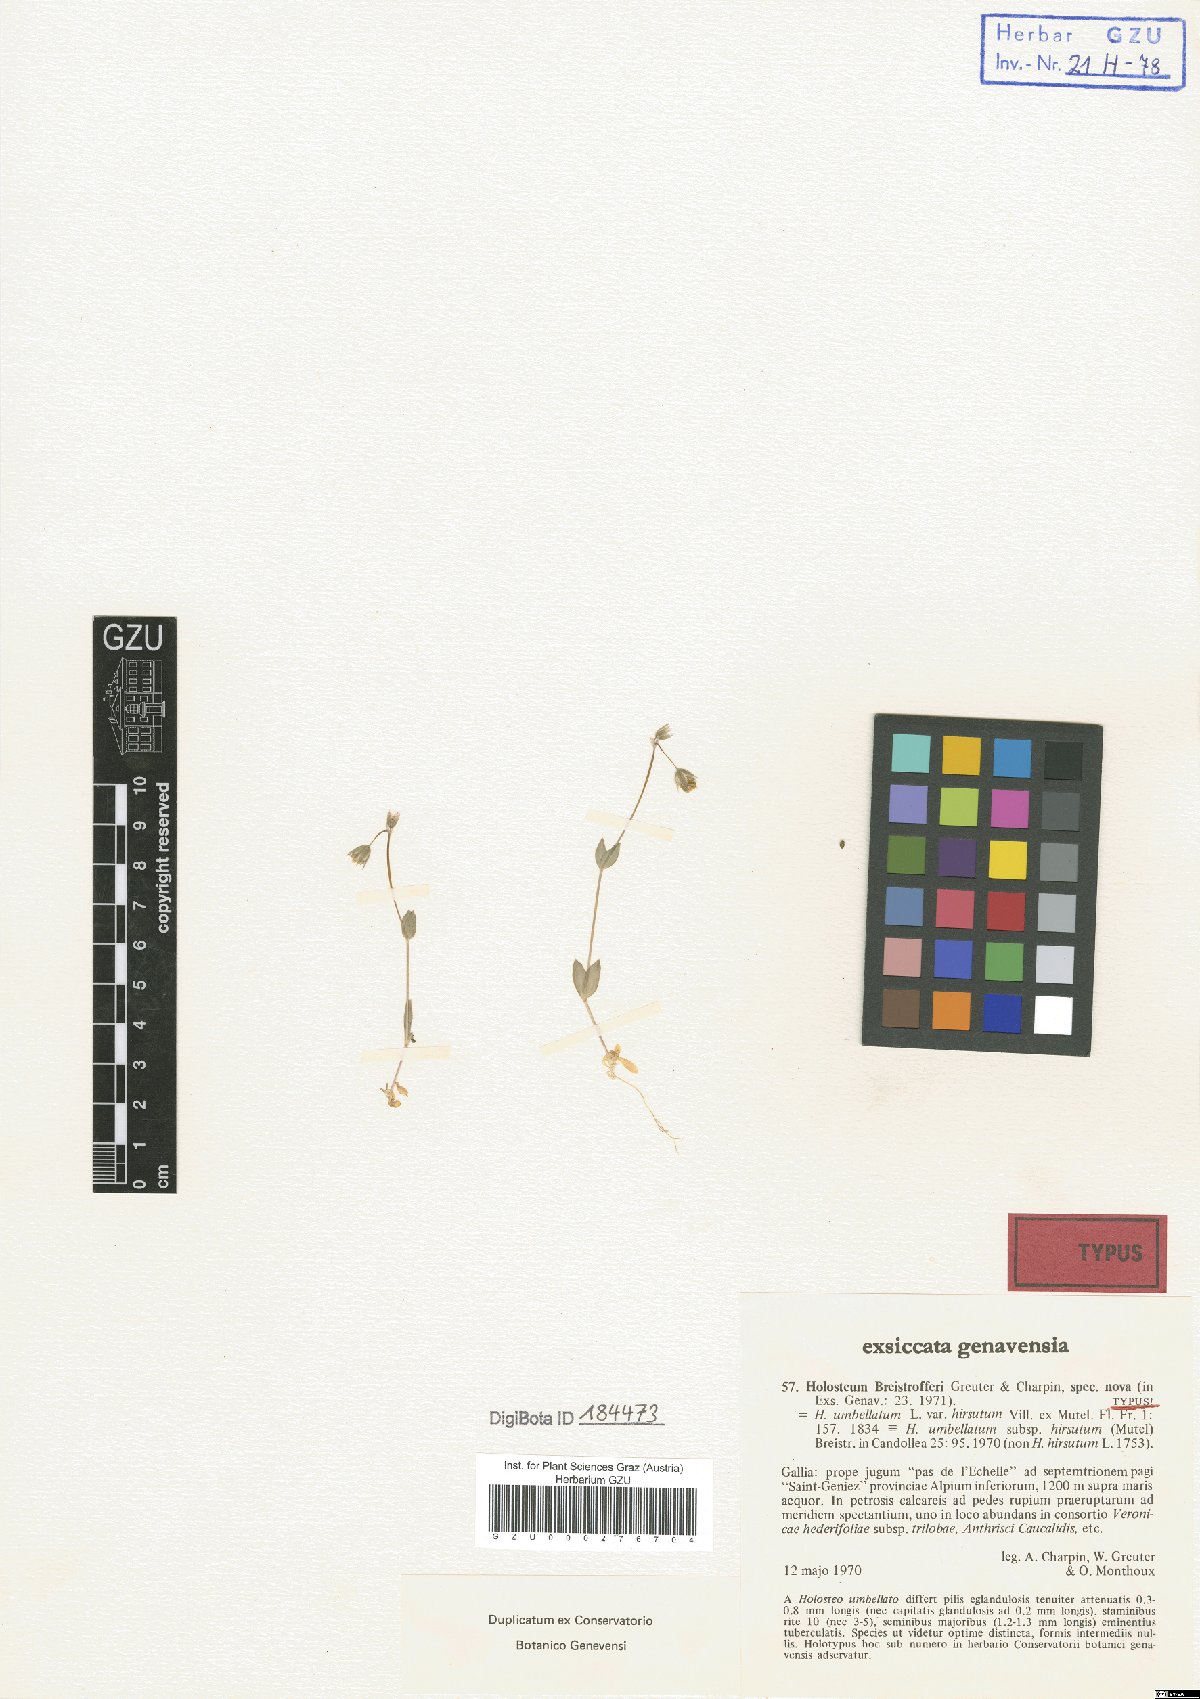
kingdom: Plantae
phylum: Tracheophyta
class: Magnoliopsida
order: Caryophyllales
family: Caryophyllaceae
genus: Holosteum
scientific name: Holosteum umbellatum
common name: Jagged chickweed
